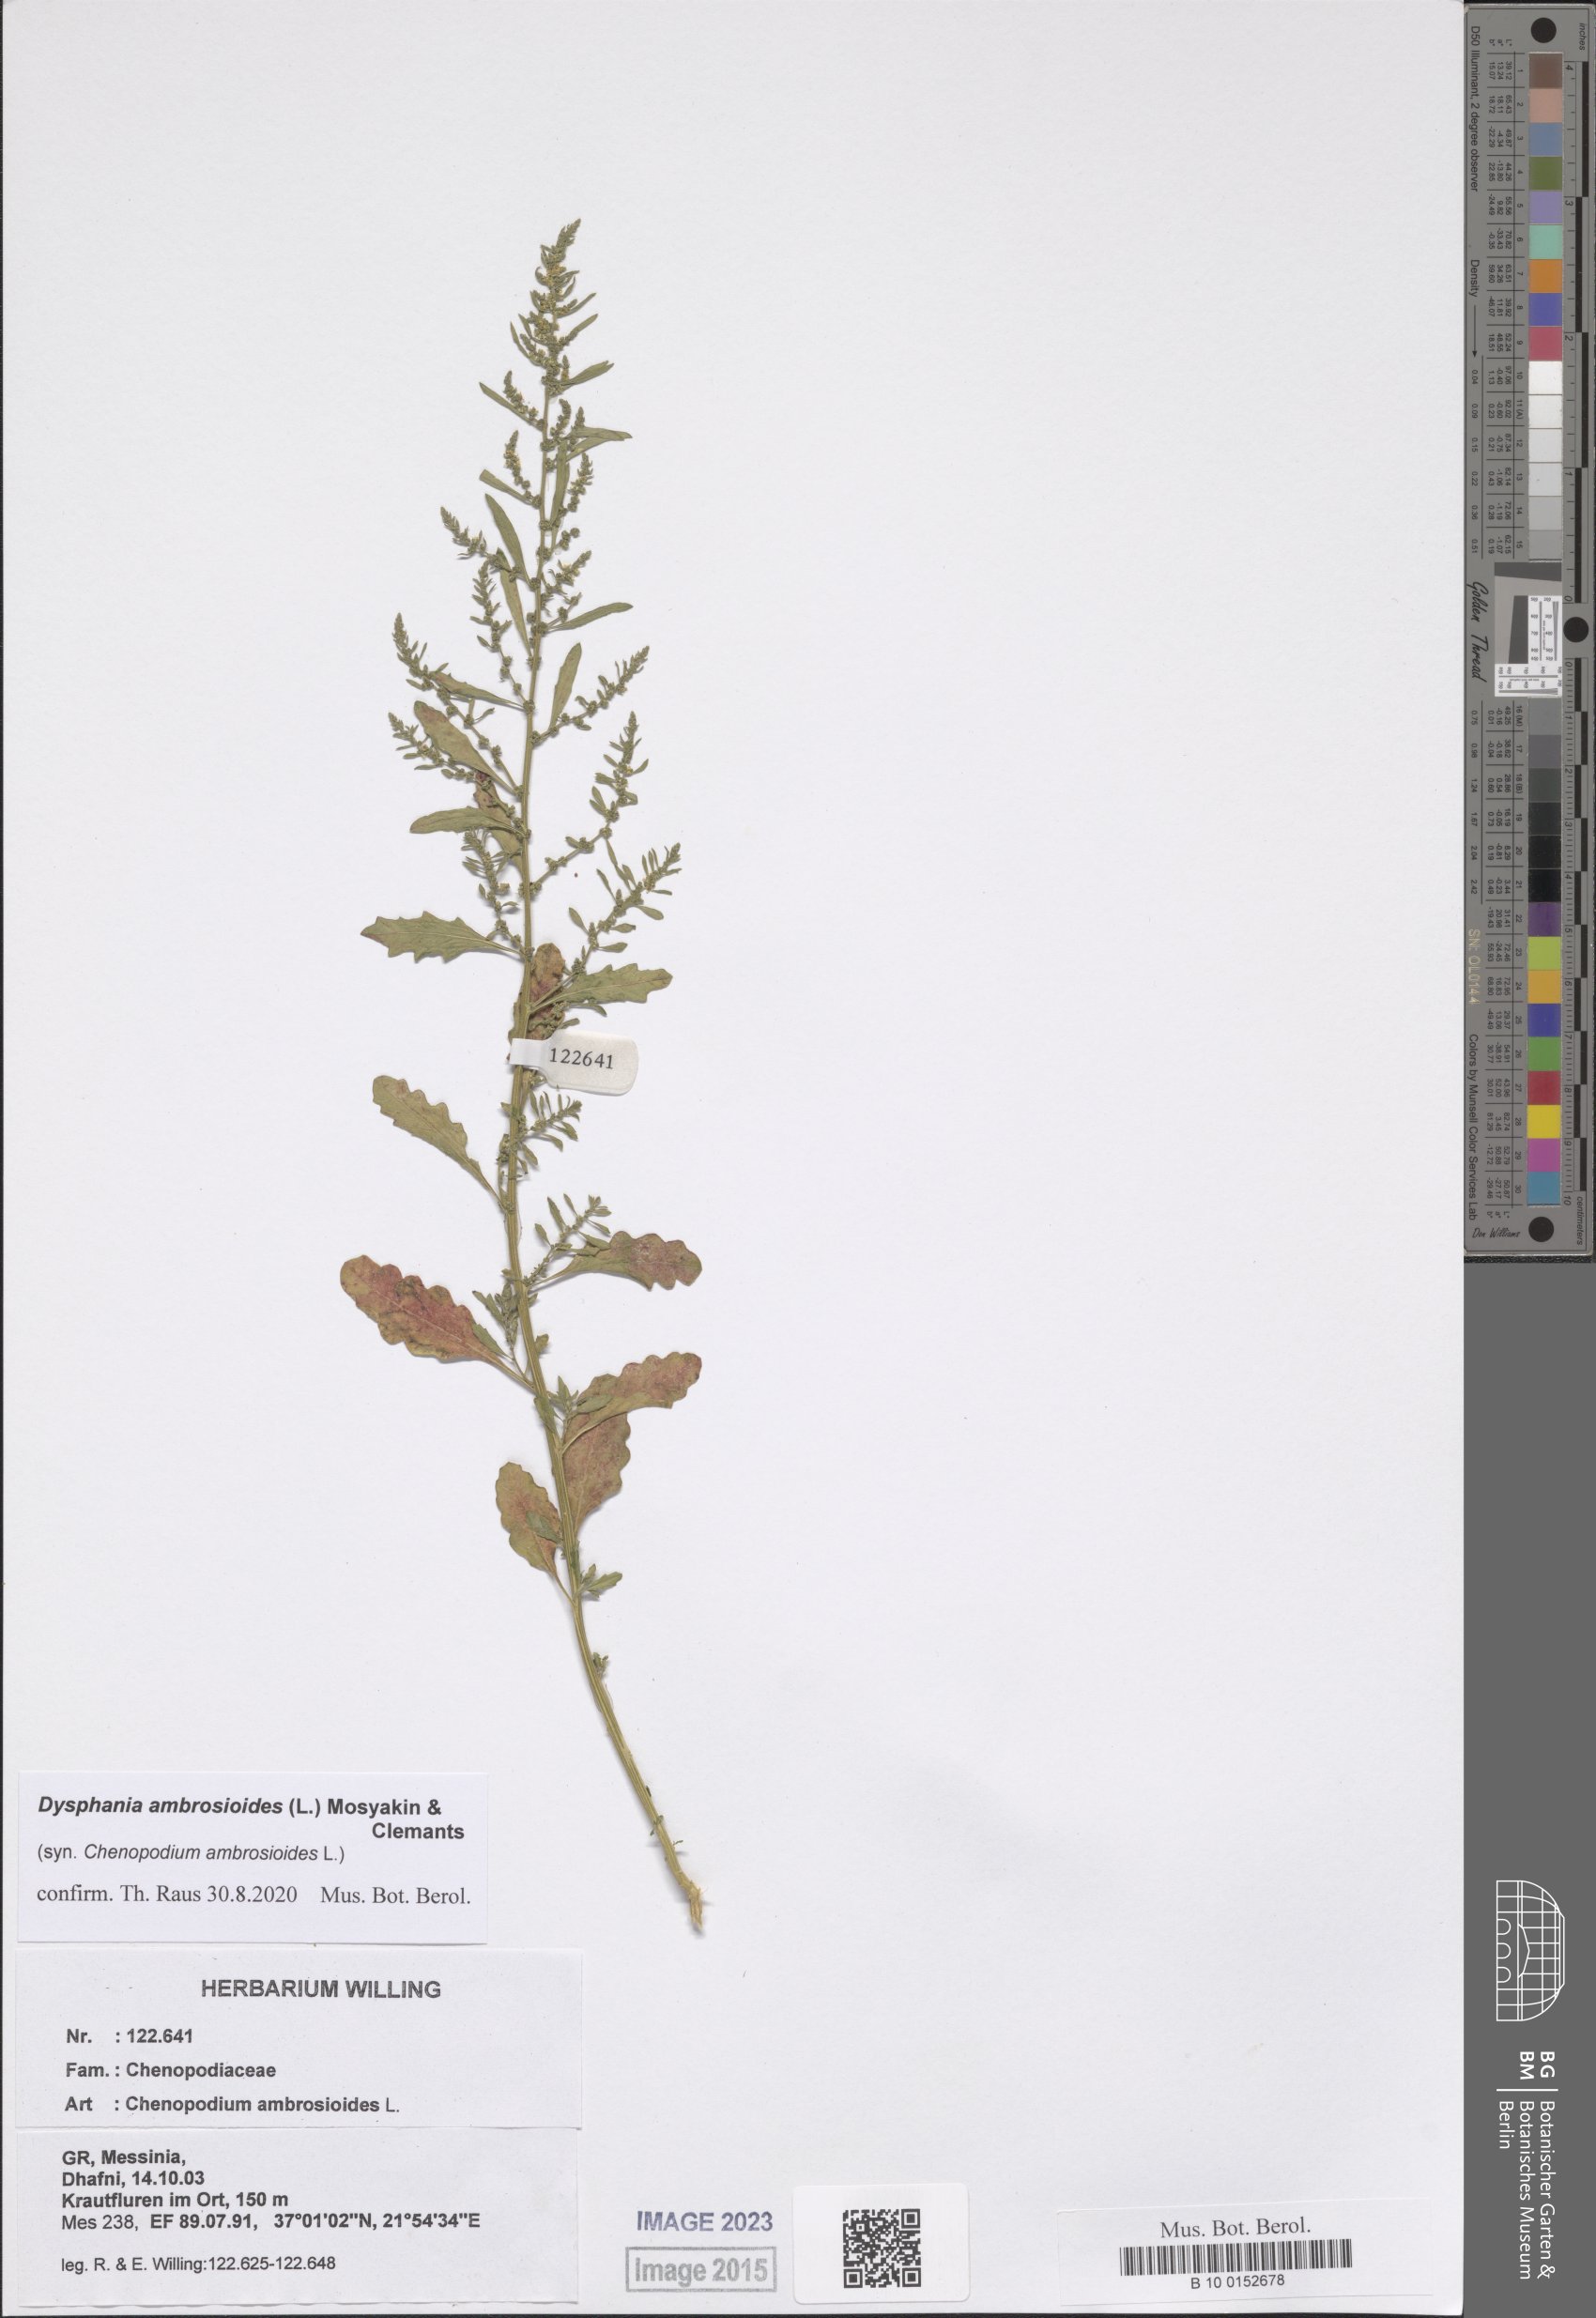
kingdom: Plantae
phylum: Tracheophyta
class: Magnoliopsida
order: Caryophyllales
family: Amaranthaceae
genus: Dysphania
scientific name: Dysphania ambrosioides
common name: Wormseed
